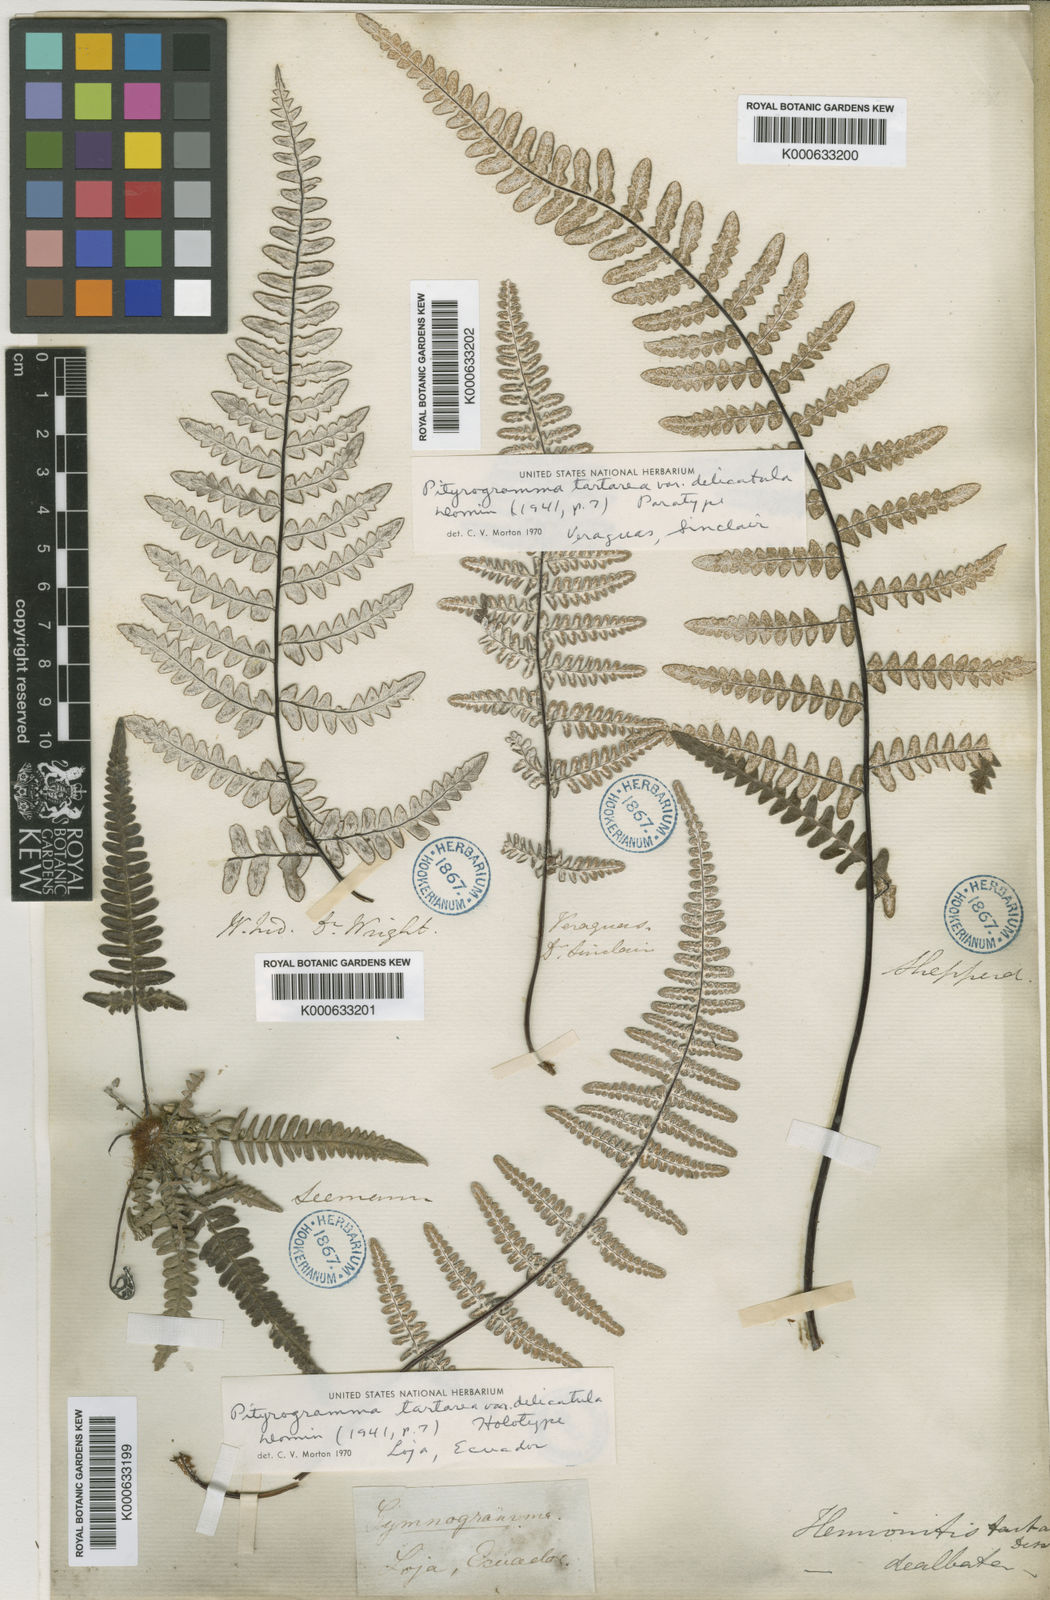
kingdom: Plantae
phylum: Tracheophyta
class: Polypodiopsida
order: Polypodiales
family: Pteridaceae
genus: Pityrogramma
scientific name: Pityrogramma ebenea
